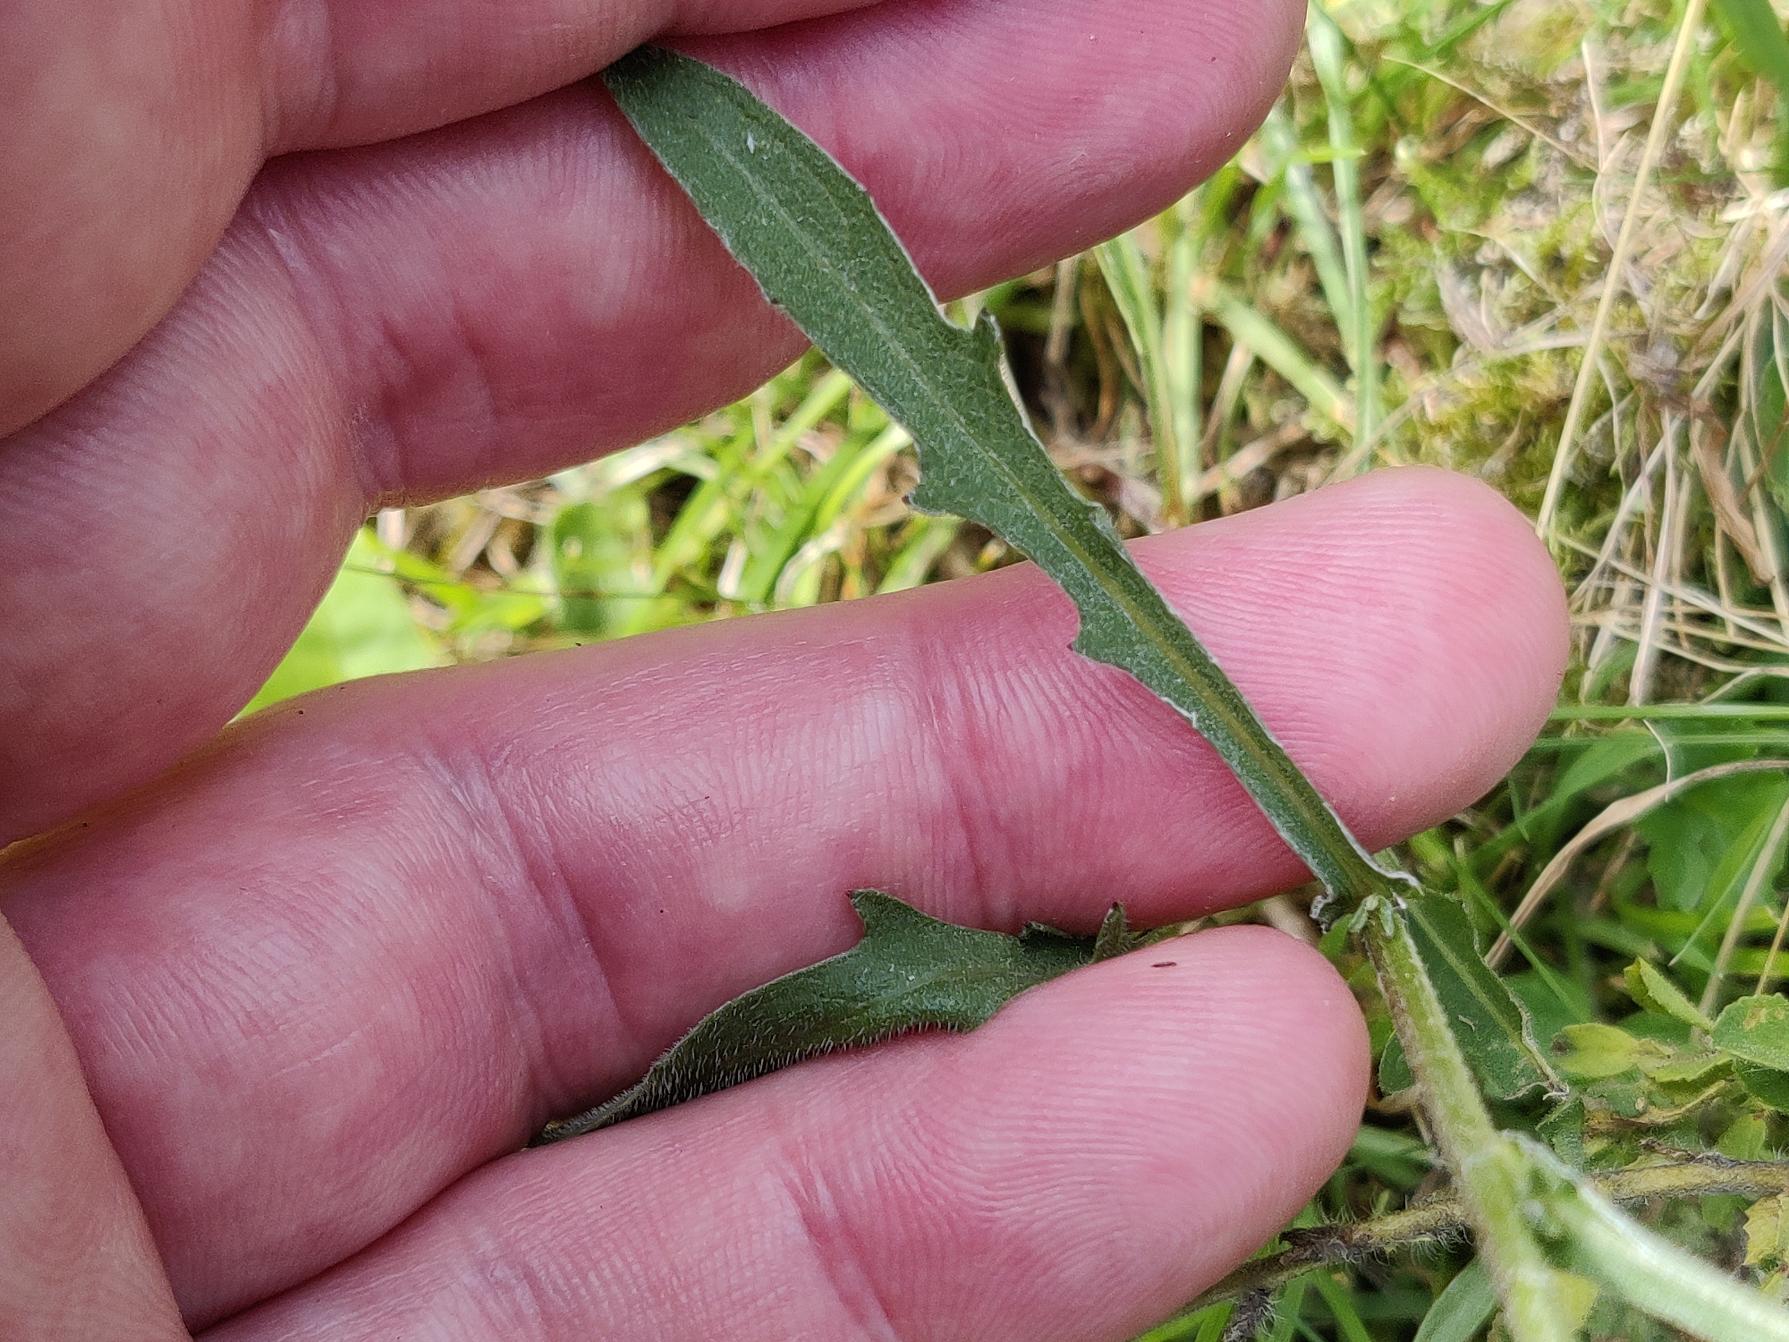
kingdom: Plantae
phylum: Tracheophyta
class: Magnoliopsida
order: Asterales
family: Asteraceae
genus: Centaurea
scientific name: Centaurea jacea
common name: Almindelig knopurt
